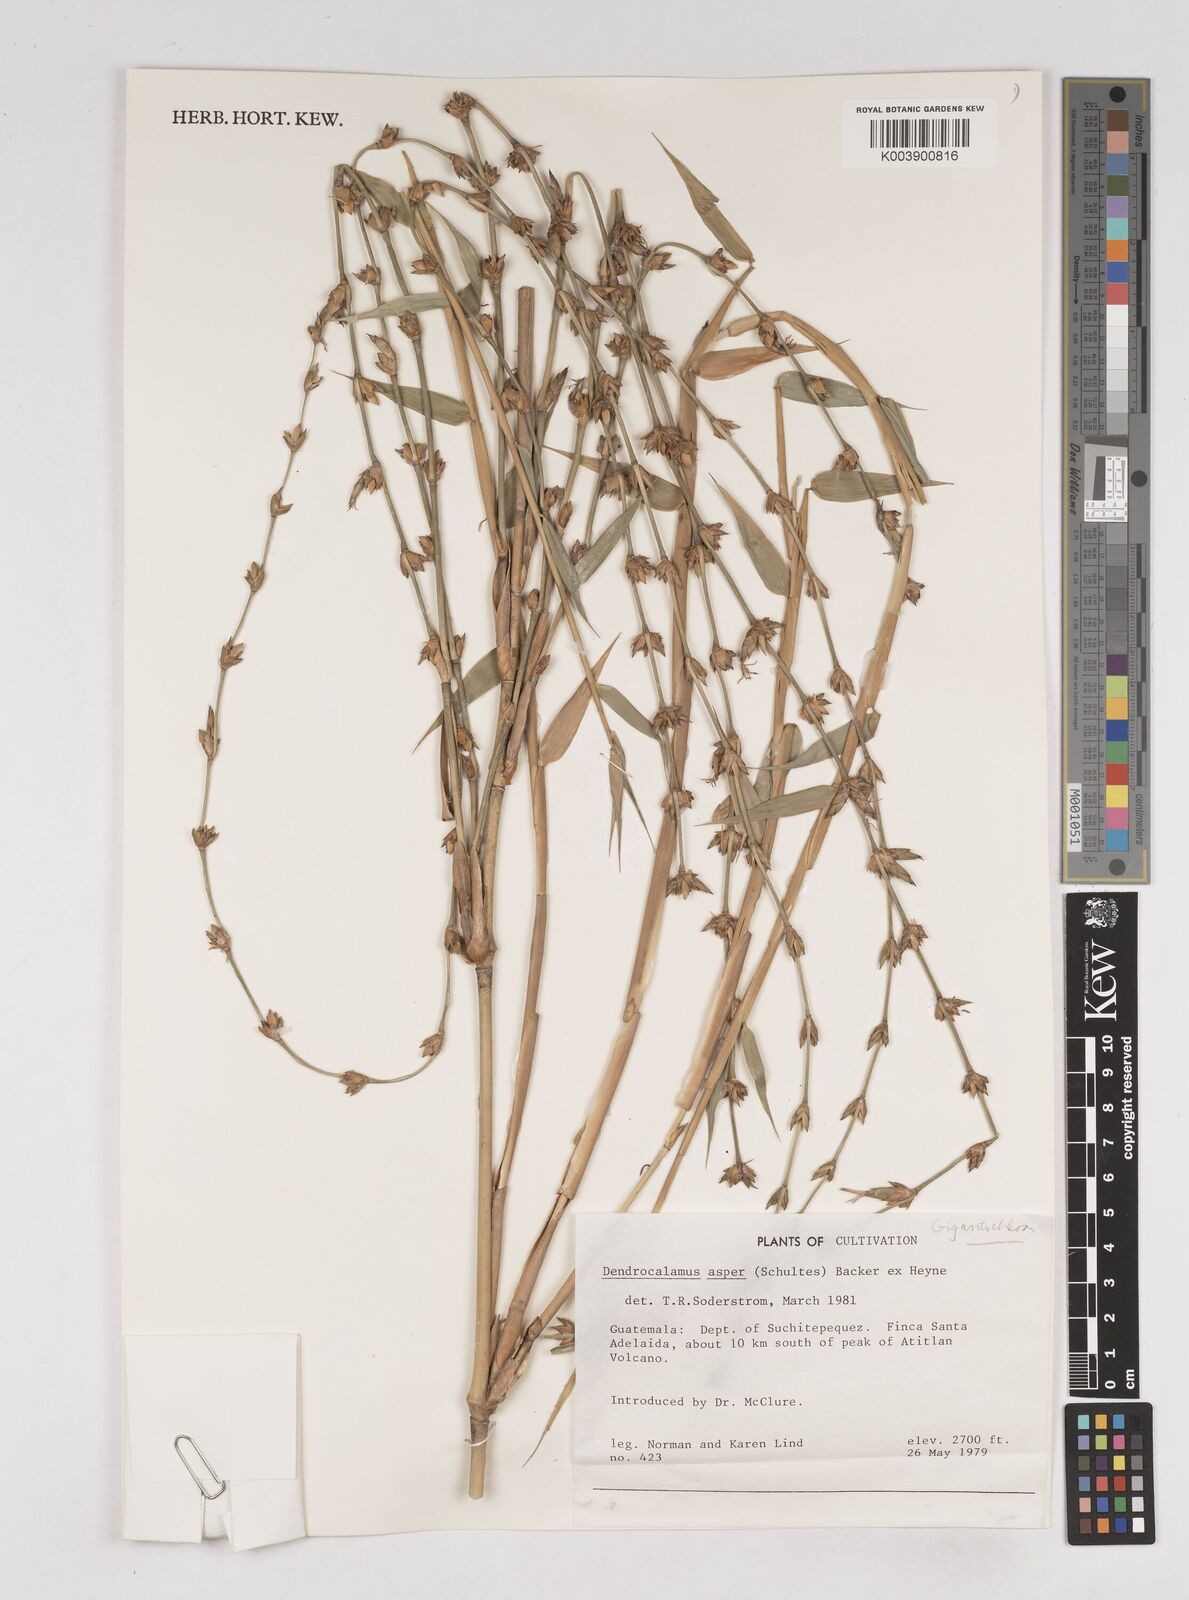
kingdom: Plantae
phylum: Tracheophyta
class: Liliopsida
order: Poales
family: Poaceae
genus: Gigantochloa
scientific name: Gigantochloa
